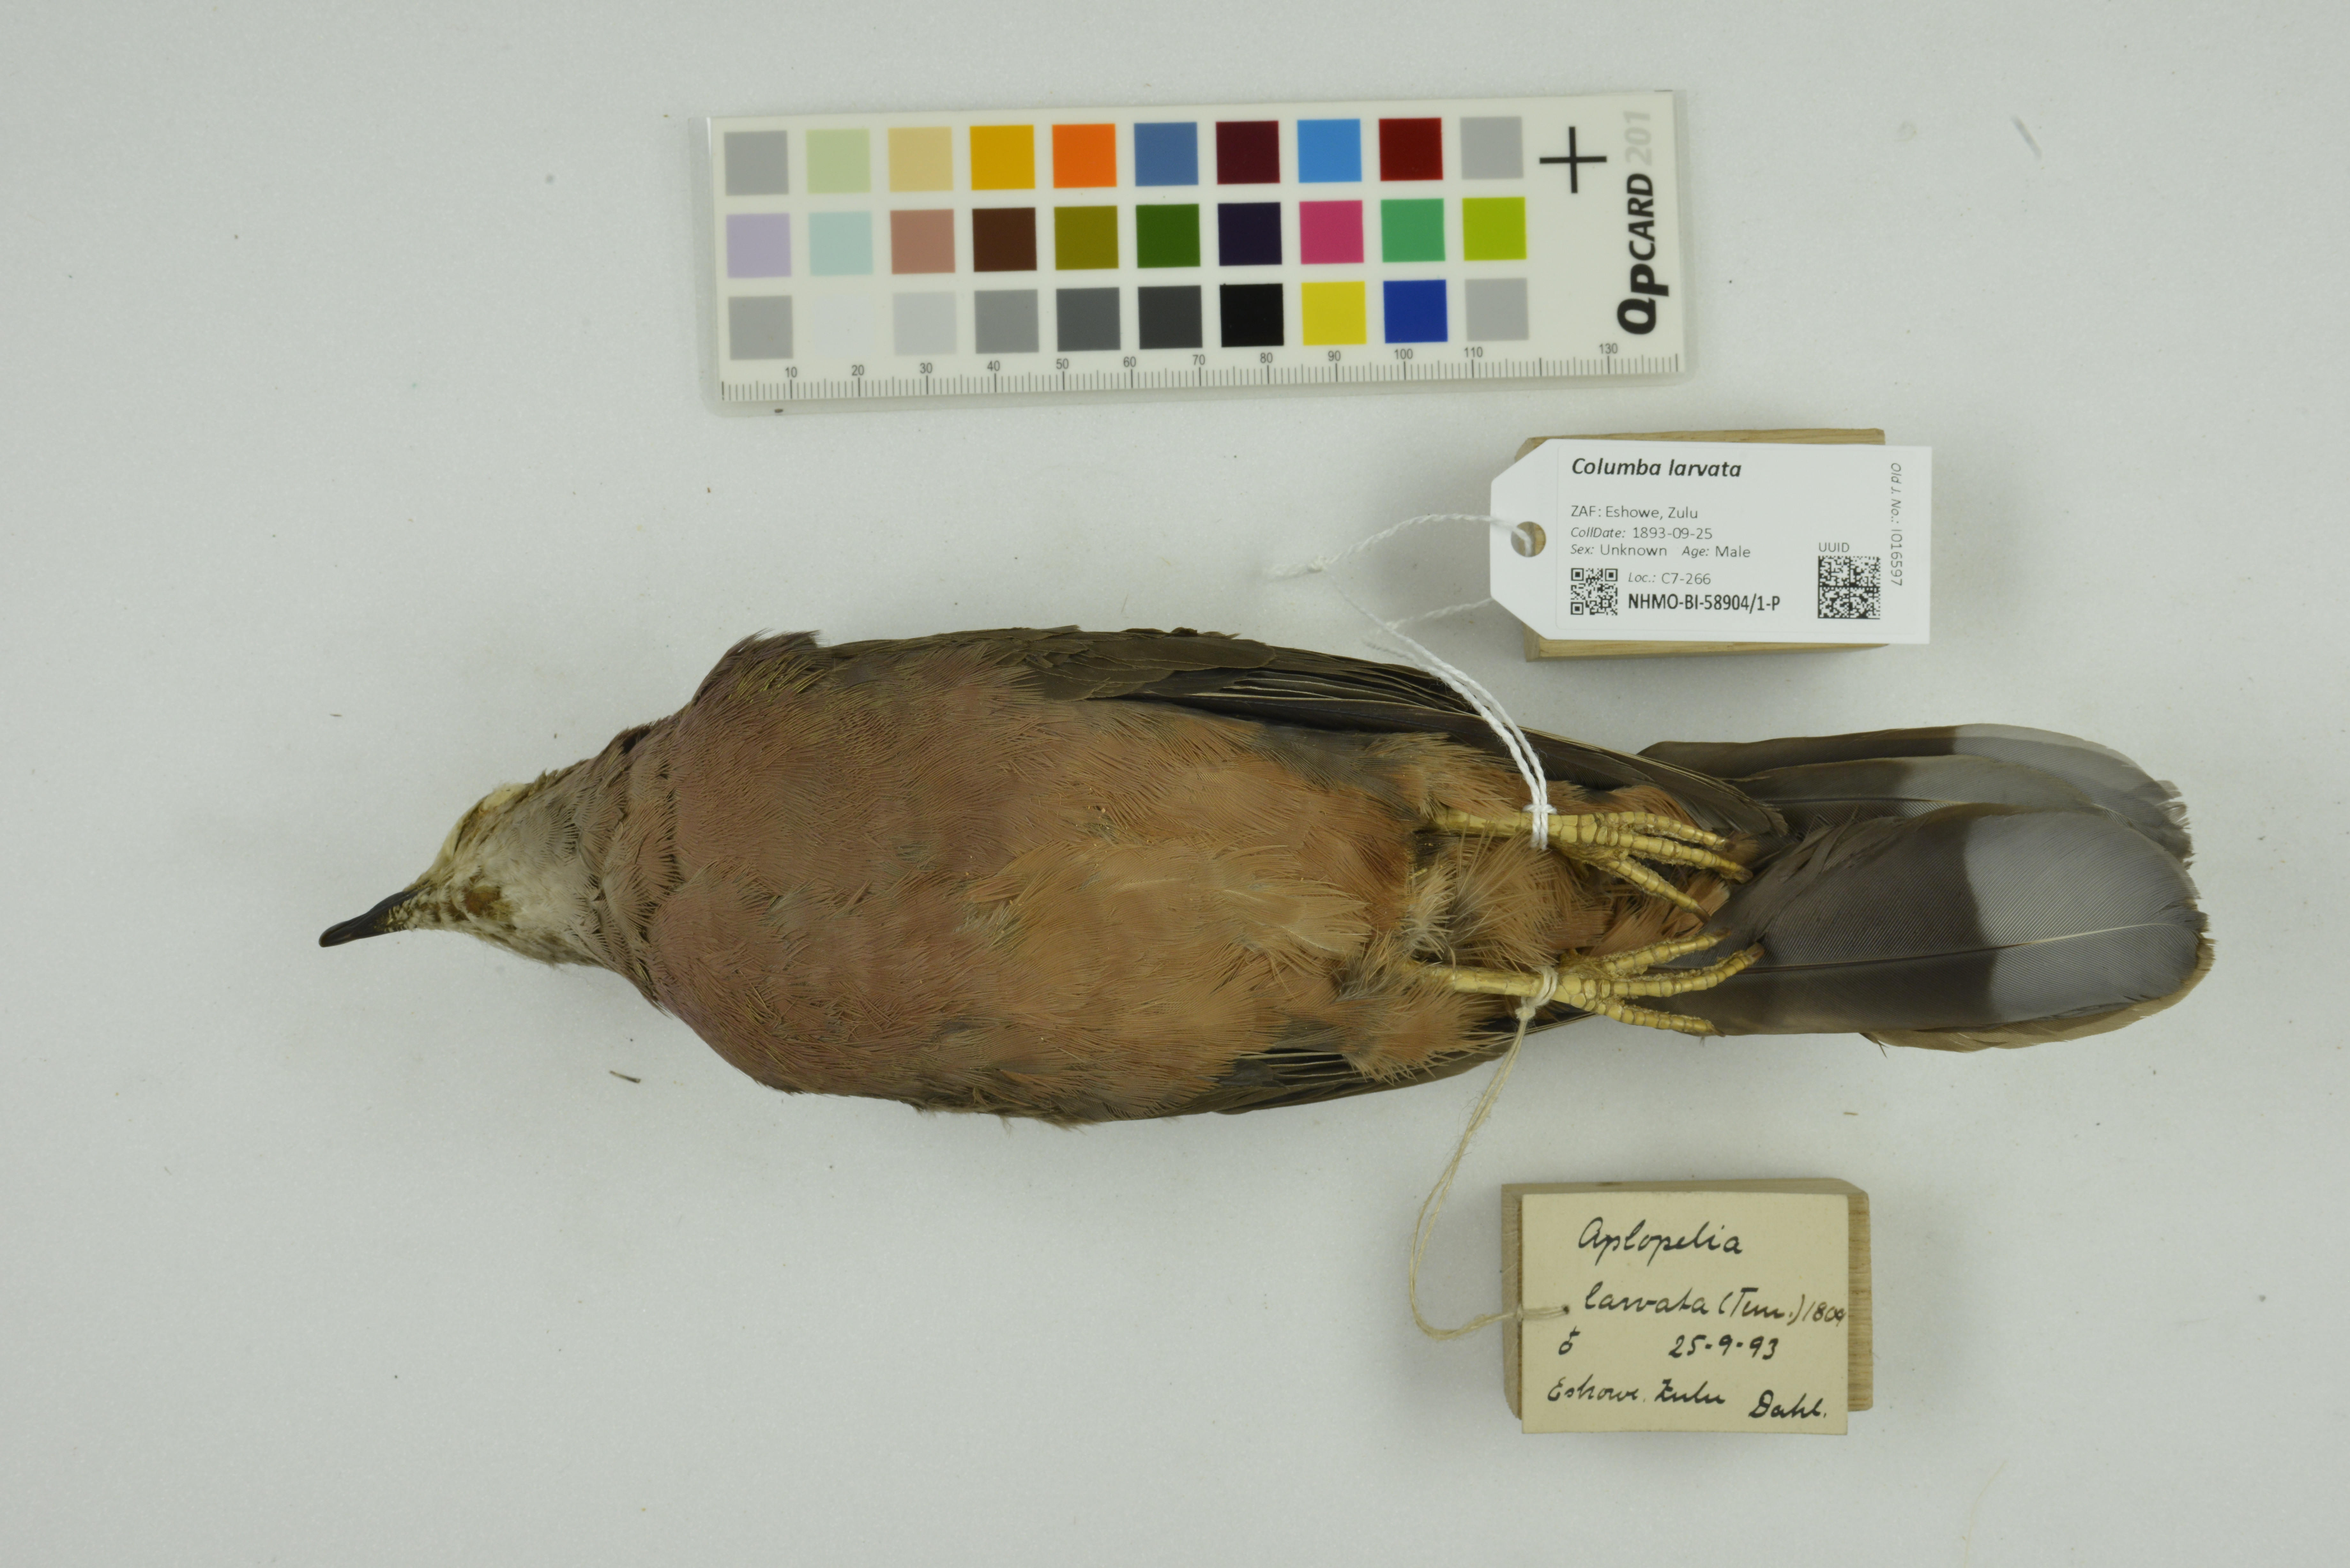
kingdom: Animalia
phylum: Chordata
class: Aves
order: Columbiformes
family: Columbidae
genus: Columba
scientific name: Columba larvata
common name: Lemon dove
